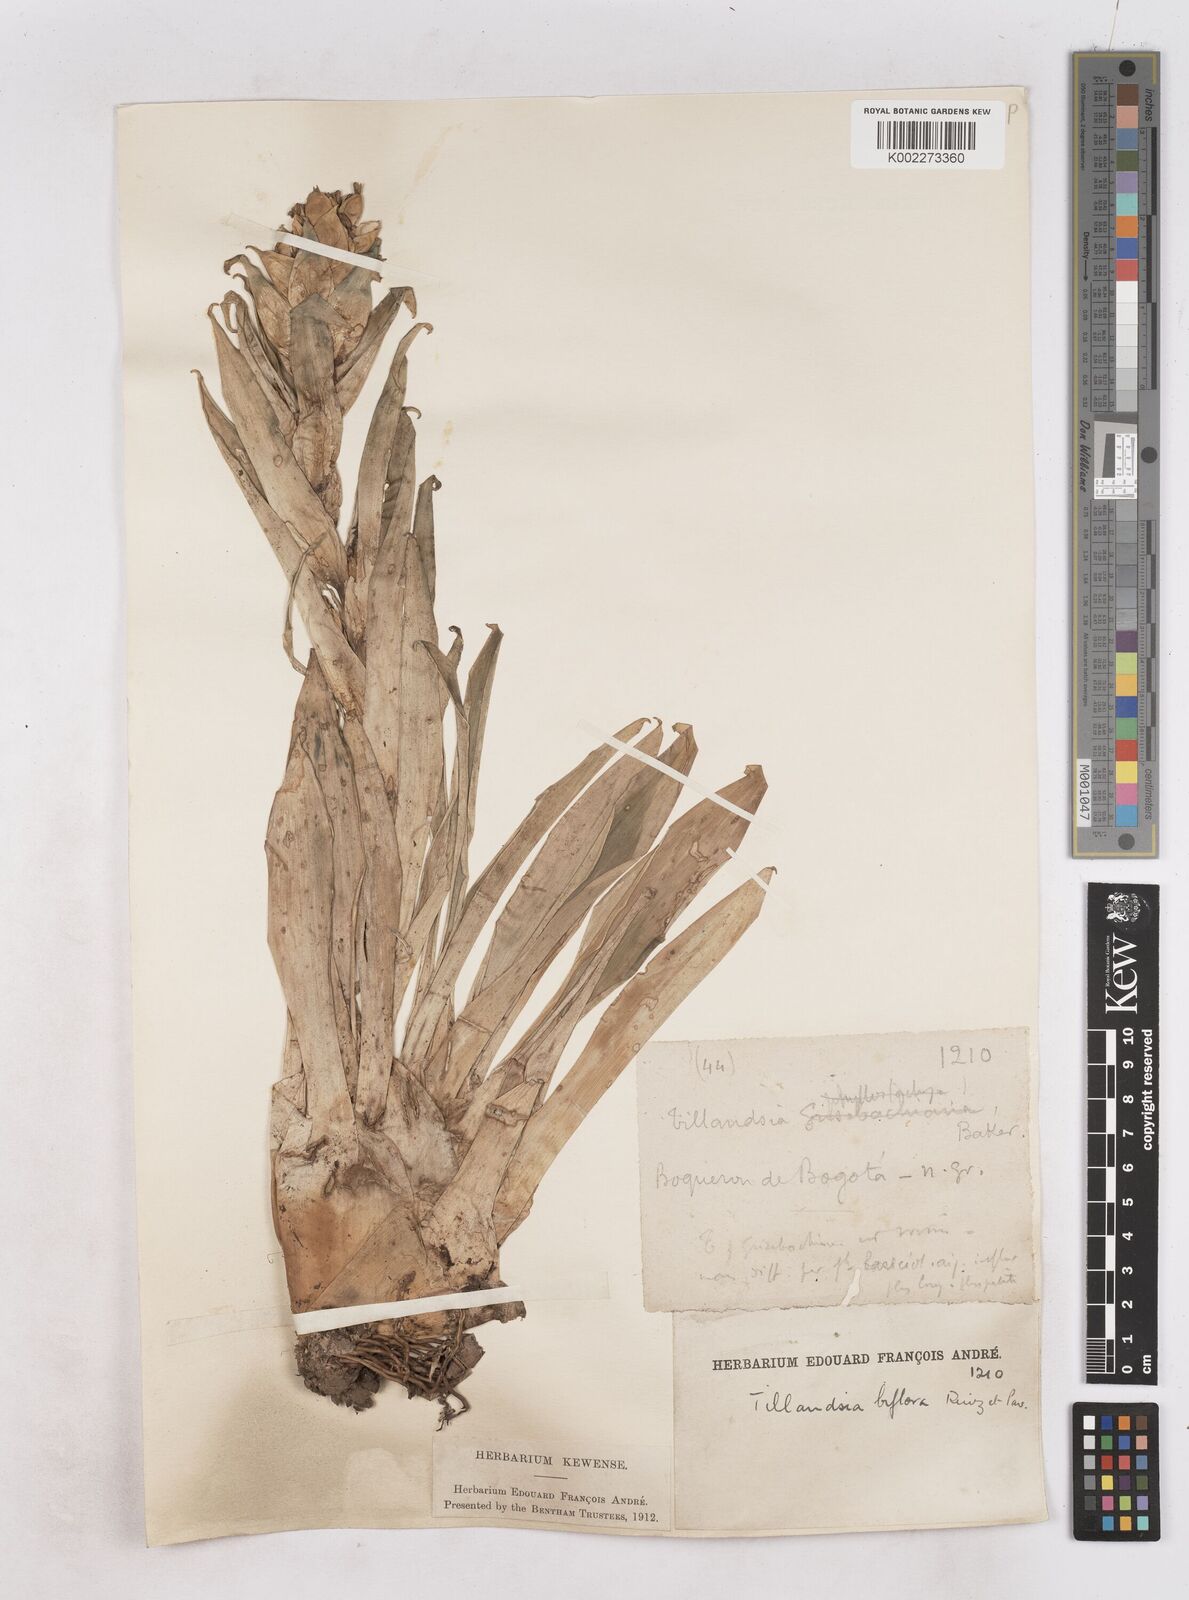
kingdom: Plantae
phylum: Tracheophyta
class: Liliopsida
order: Poales
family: Bromeliaceae
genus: Tillandsia
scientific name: Tillandsia biflora
